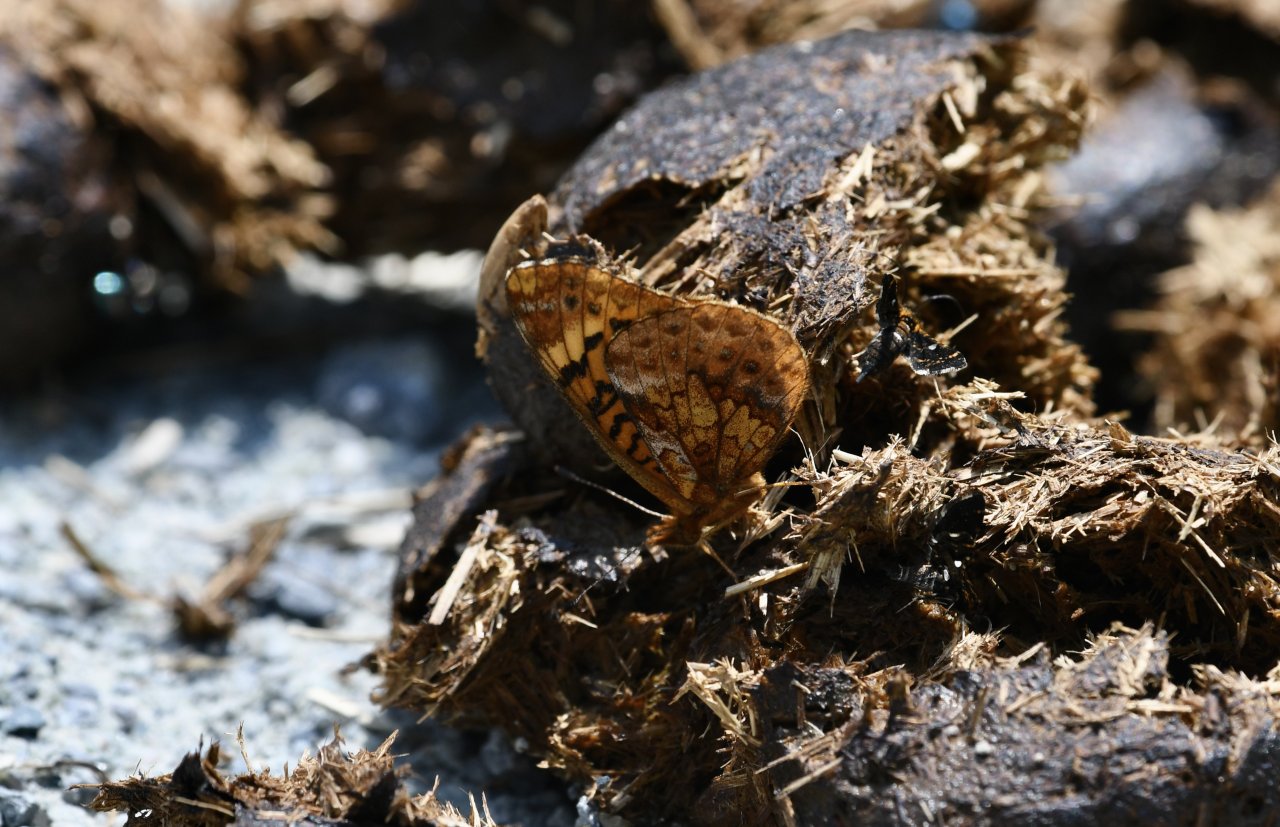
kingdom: Animalia
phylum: Arthropoda
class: Insecta
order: Lepidoptera
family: Nymphalidae
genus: Clossiana
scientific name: Clossiana toddi
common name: Meadow Fritillary
